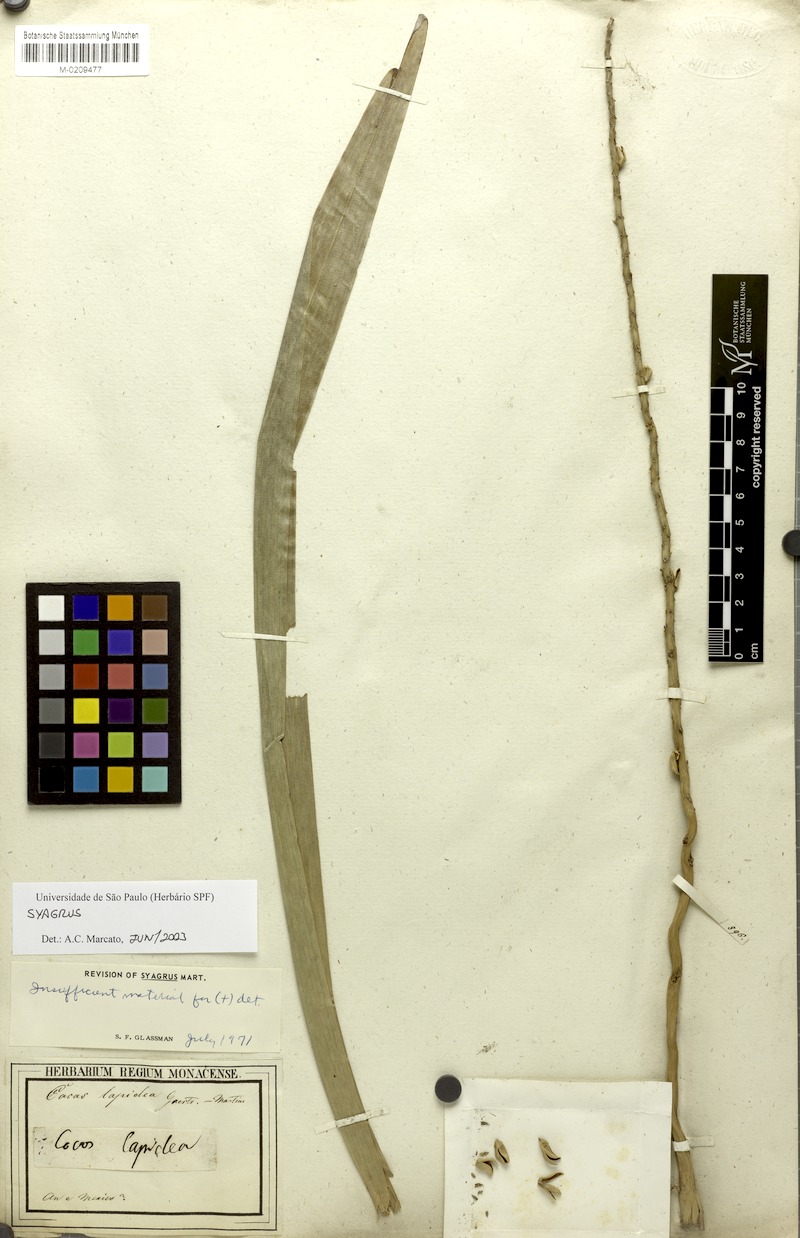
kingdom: Plantae
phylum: Tracheophyta
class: Liliopsida
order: Arecales
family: Arecaceae
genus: Syagrus
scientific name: Syagrus
